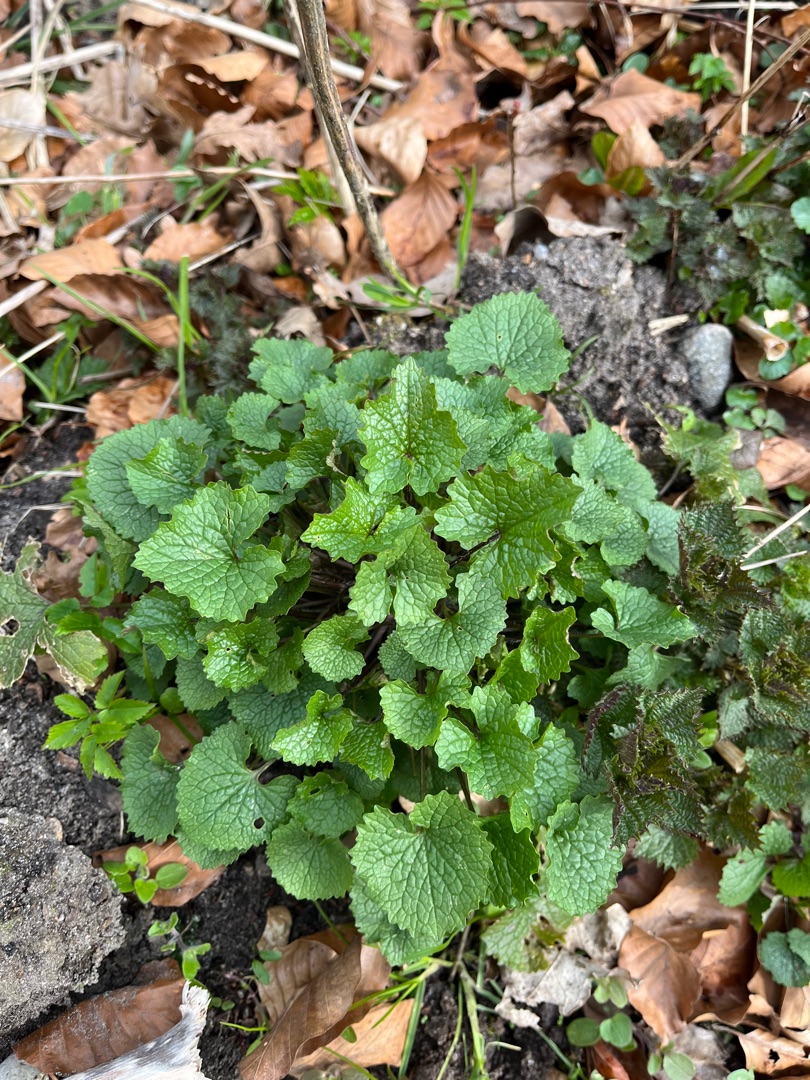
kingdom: Plantae
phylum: Tracheophyta
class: Magnoliopsida
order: Brassicales
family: Brassicaceae
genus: Alliaria
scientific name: Alliaria petiolata
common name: Løgkarse
